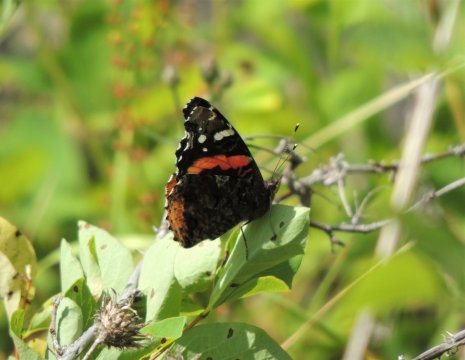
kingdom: Animalia
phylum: Arthropoda
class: Insecta
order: Lepidoptera
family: Nymphalidae
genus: Vanessa
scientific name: Vanessa atalanta
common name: Red Admiral
